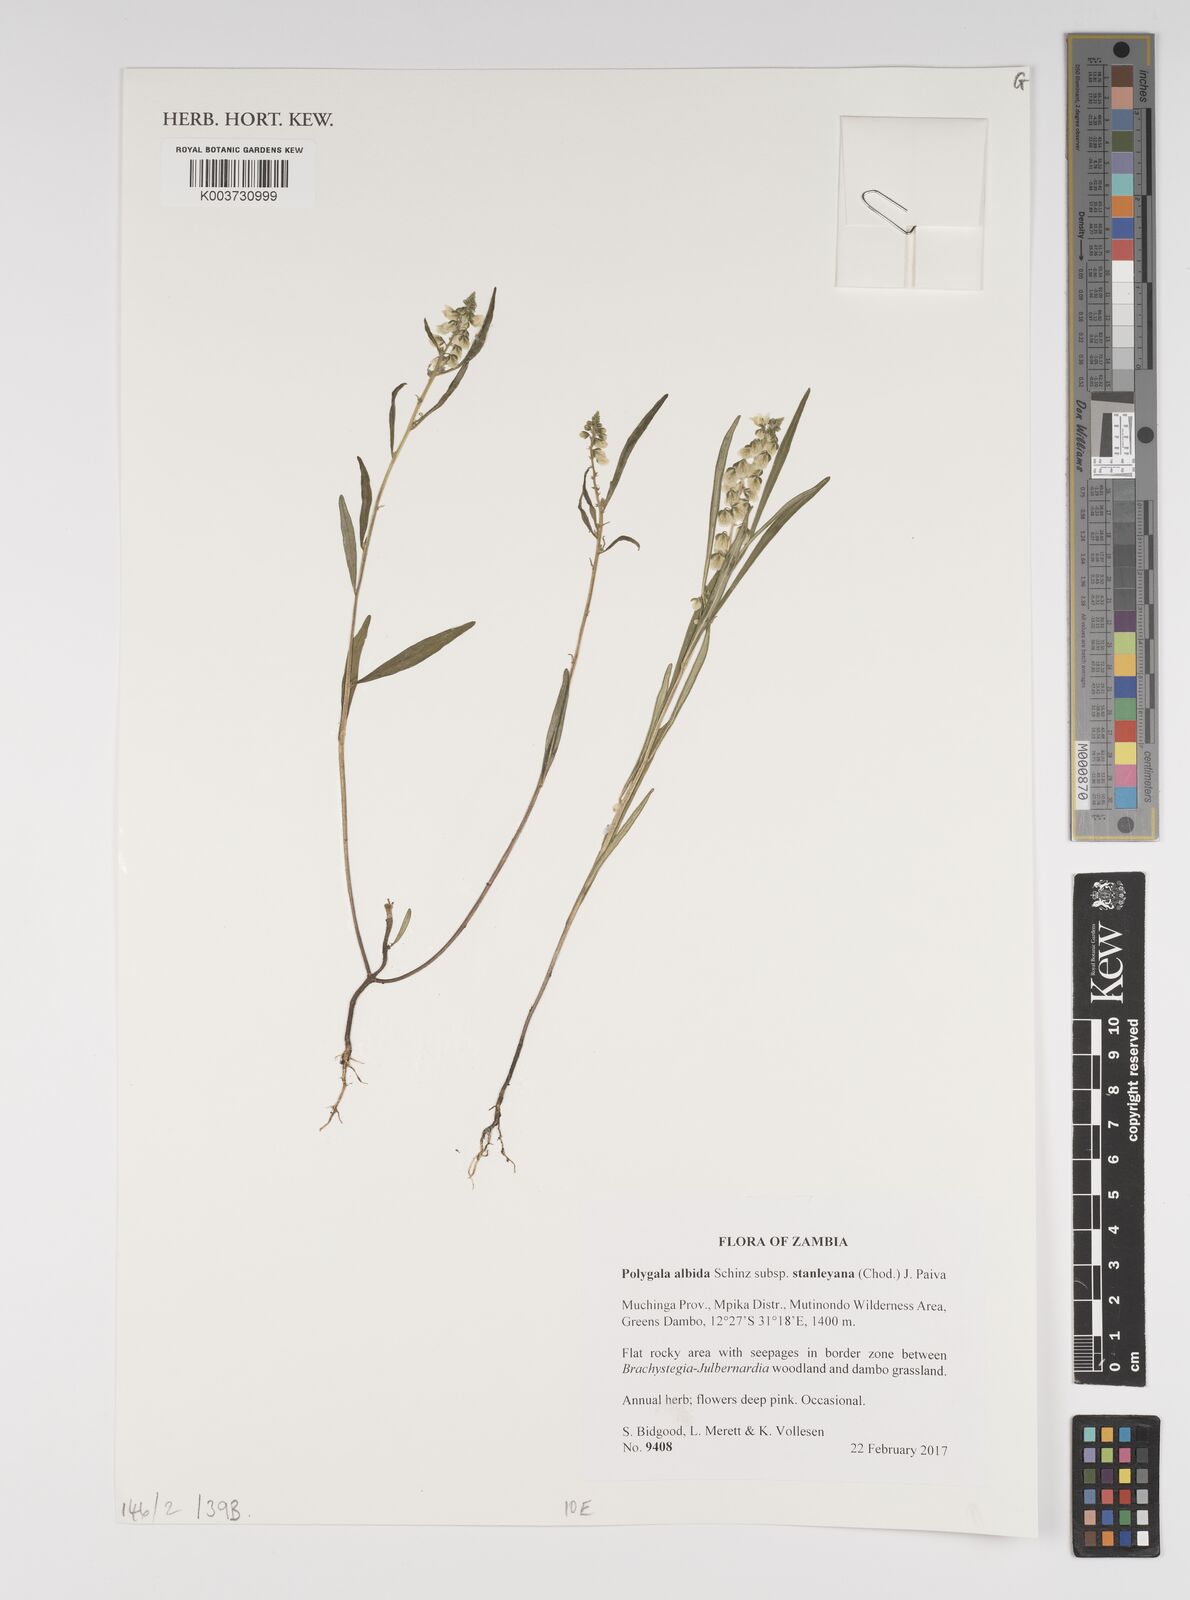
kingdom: Plantae
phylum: Tracheophyta
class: Magnoliopsida
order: Fabales
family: Polygalaceae
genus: Polygala
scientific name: Polygala albida
